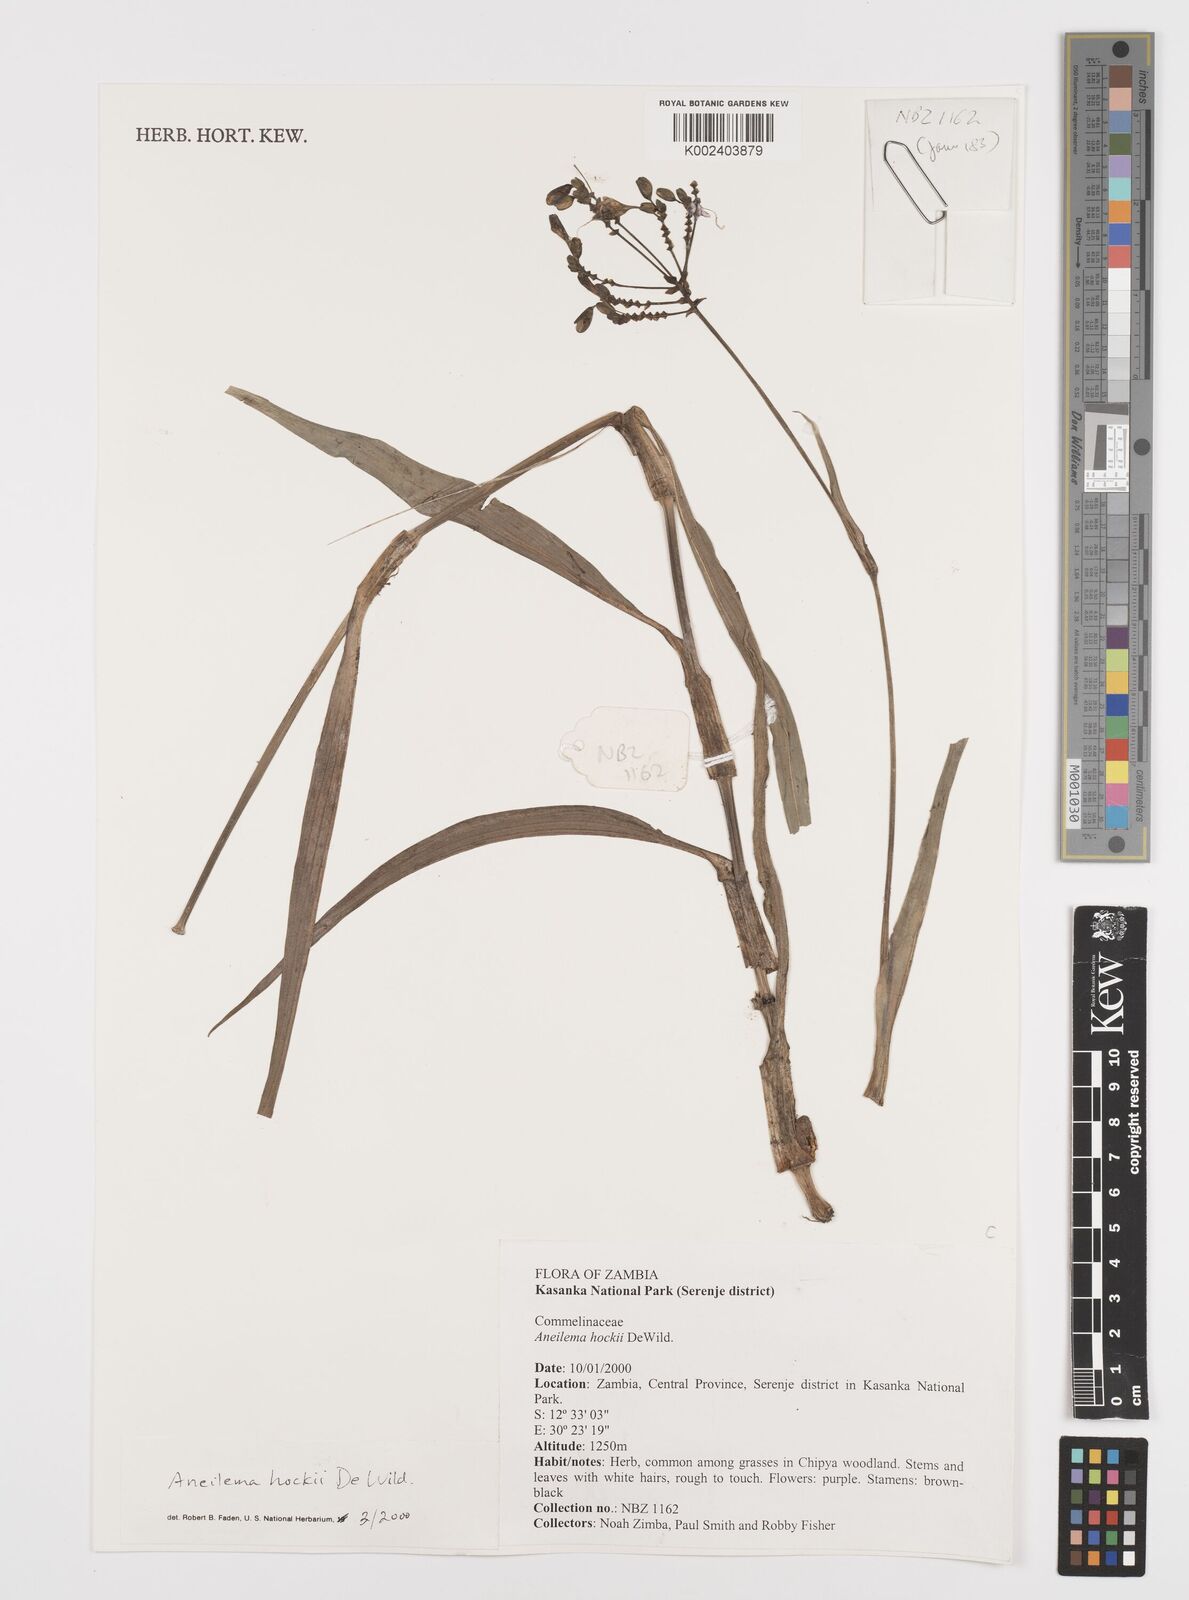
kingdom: Plantae
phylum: Tracheophyta
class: Liliopsida
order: Commelinales
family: Commelinaceae
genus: Aneilema
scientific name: Aneilema hockii
